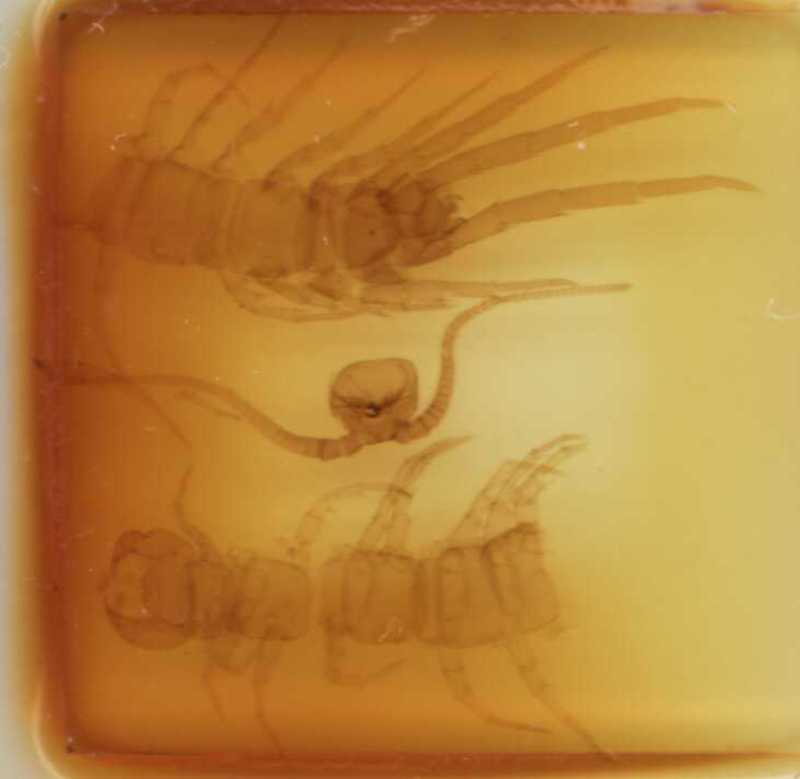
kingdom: Animalia
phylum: Arthropoda
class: Chilopoda
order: Lithobiomorpha
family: Lithobiidae
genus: Lithobius
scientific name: Lithobius lucifugus
